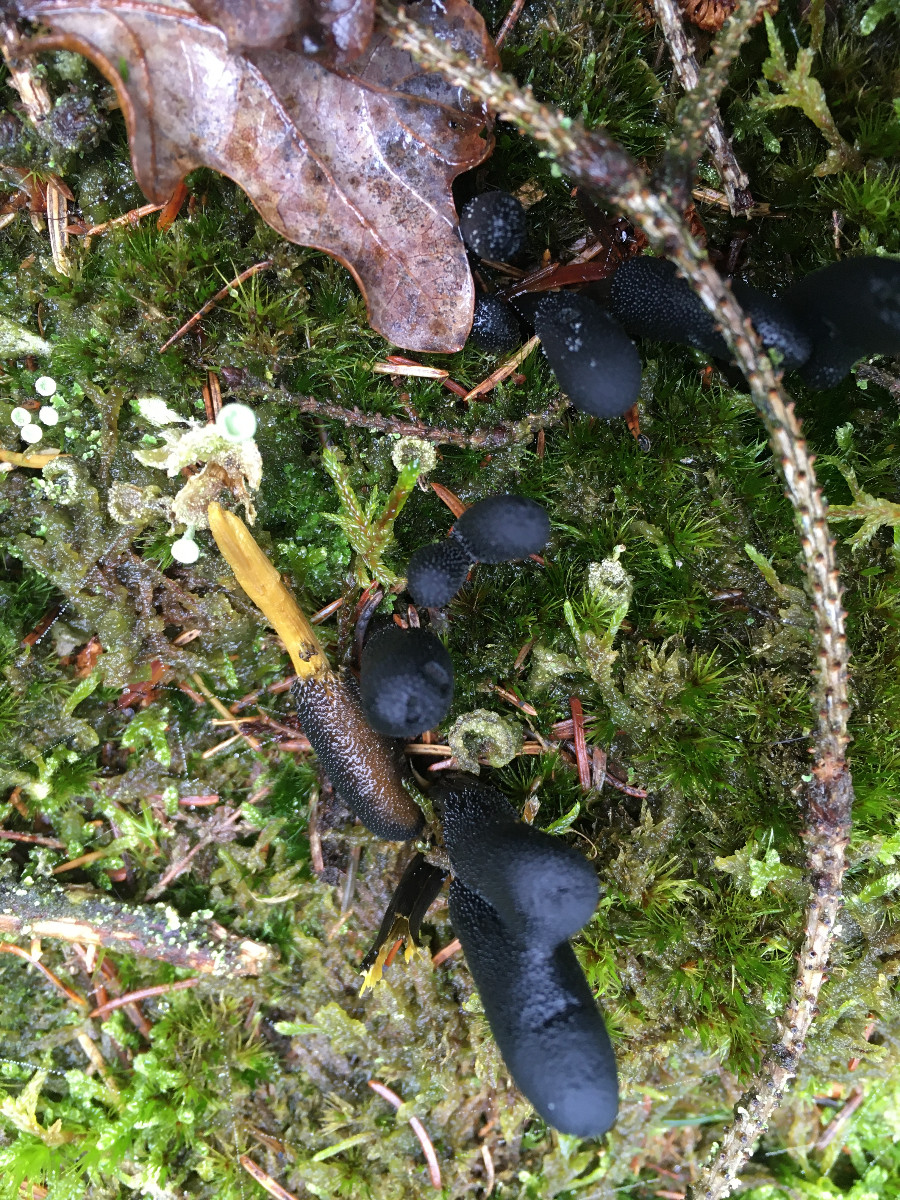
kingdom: Fungi
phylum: Ascomycota
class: Sordariomycetes
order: Hypocreales
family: Ophiocordycipitaceae
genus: Tolypocladium
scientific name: Tolypocladium ophioglossoides
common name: slank snyltekølle
